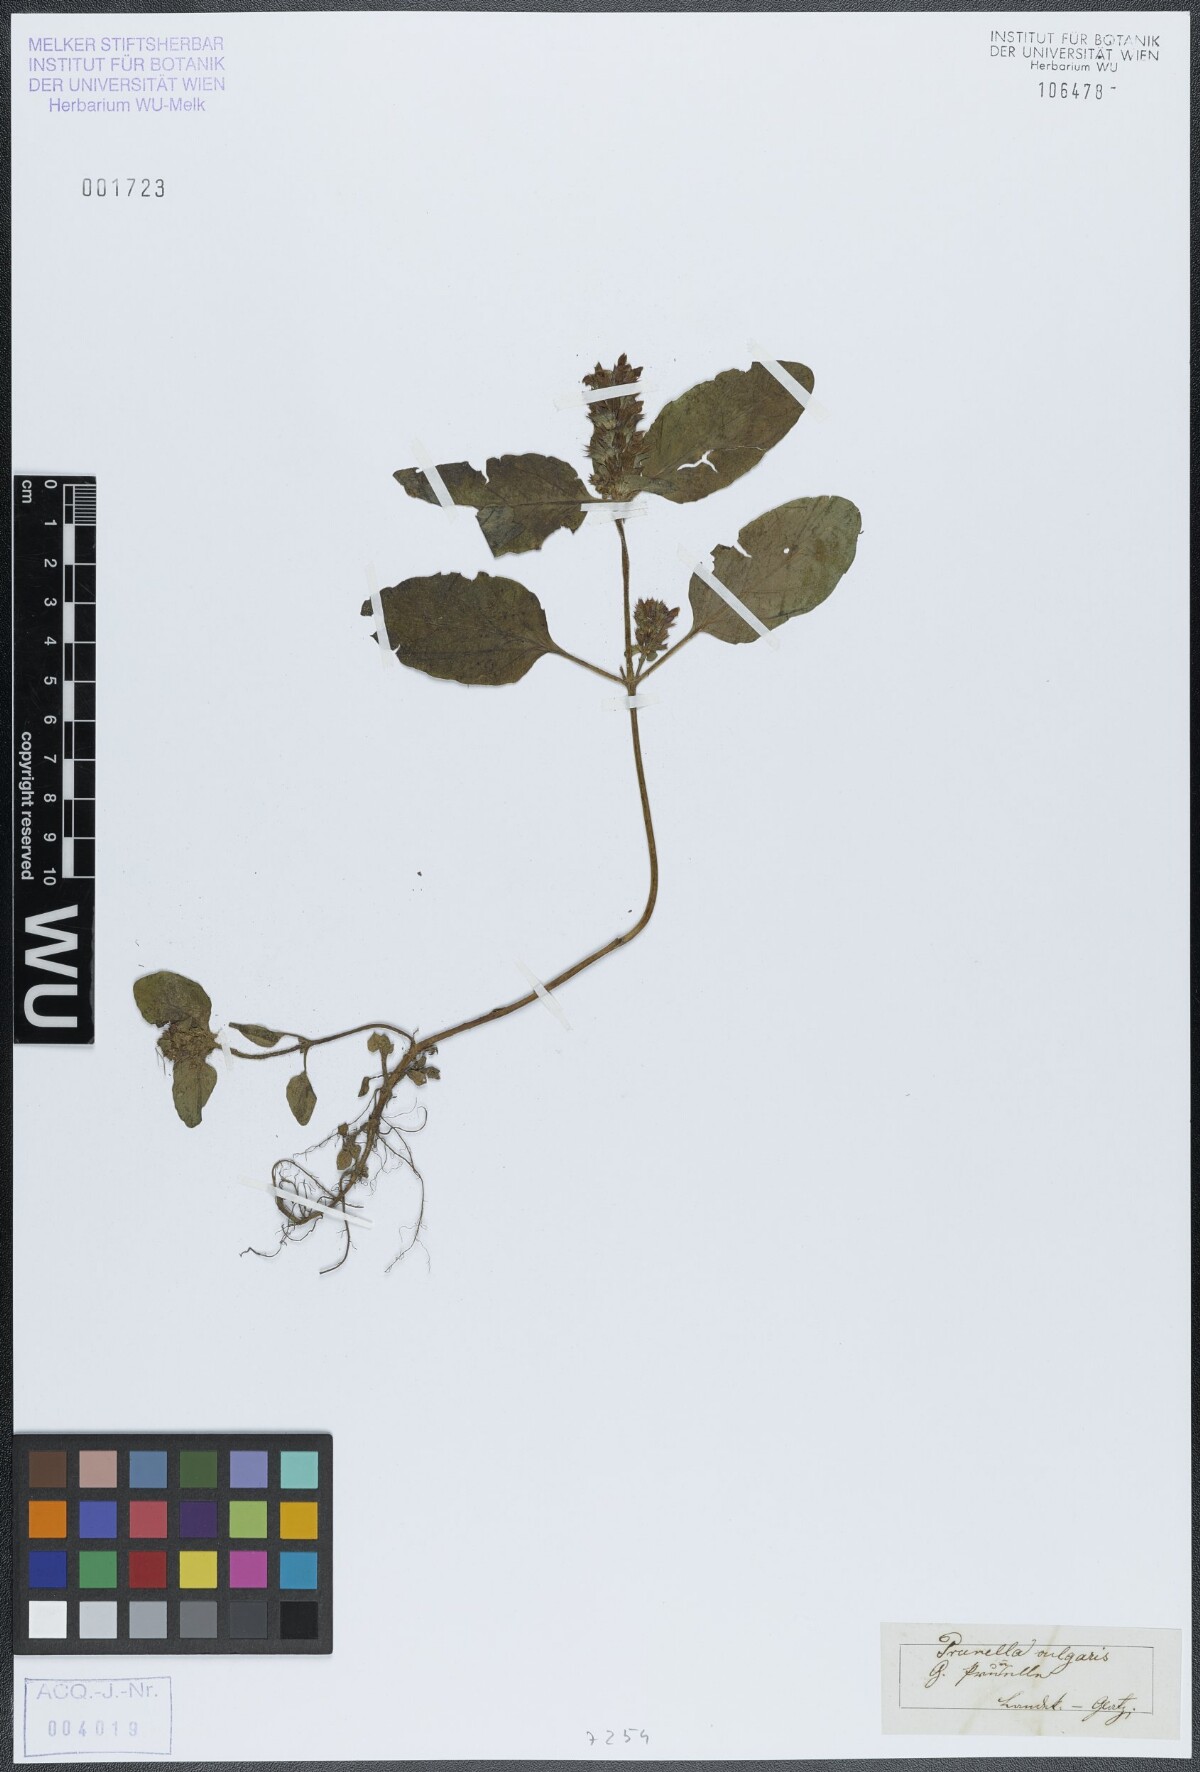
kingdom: Plantae
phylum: Tracheophyta
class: Magnoliopsida
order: Lamiales
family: Lamiaceae
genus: Prunella
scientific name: Prunella vulgaris
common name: Heal-all
